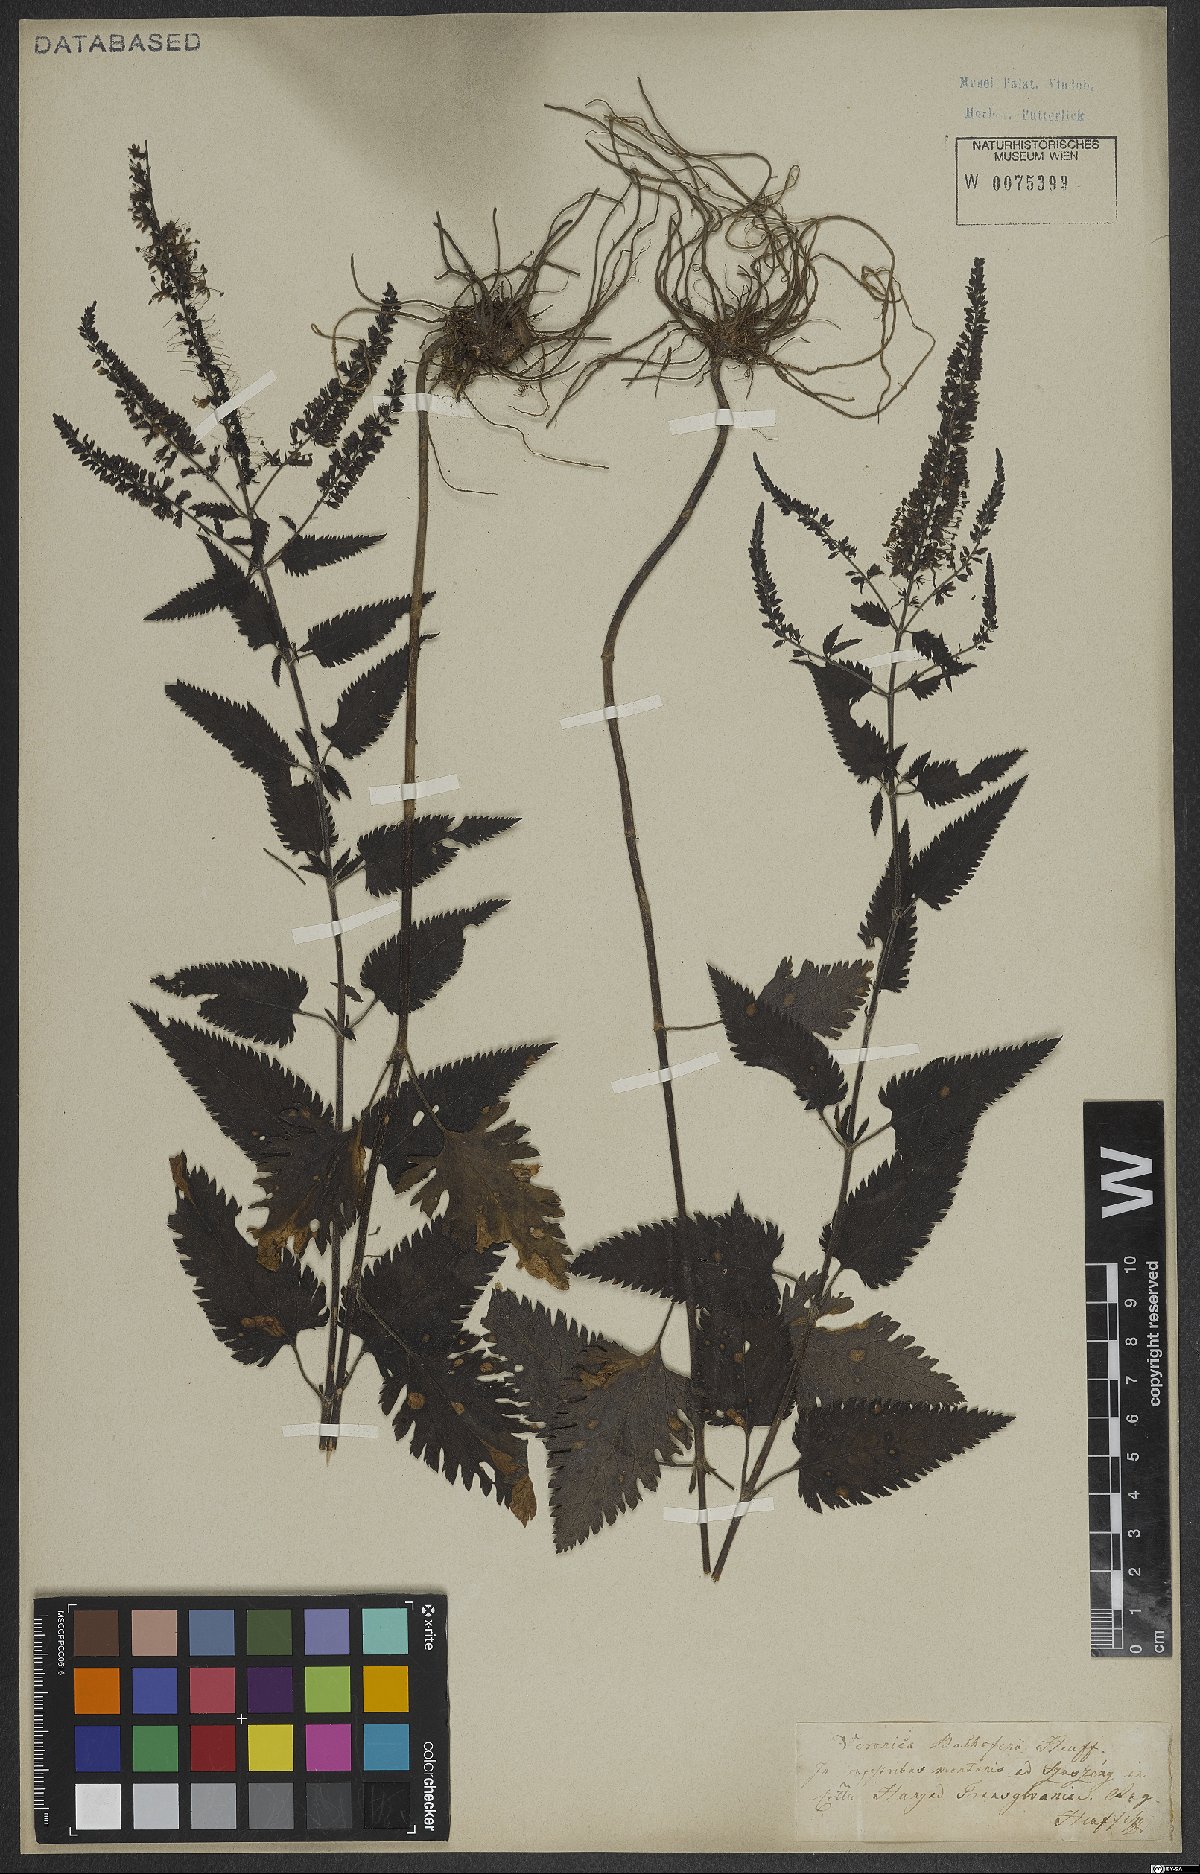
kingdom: Plantae
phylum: Tracheophyta
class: Magnoliopsida
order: Lamiales
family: Plantaginaceae
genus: Veronica
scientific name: Veronica bachofenii
